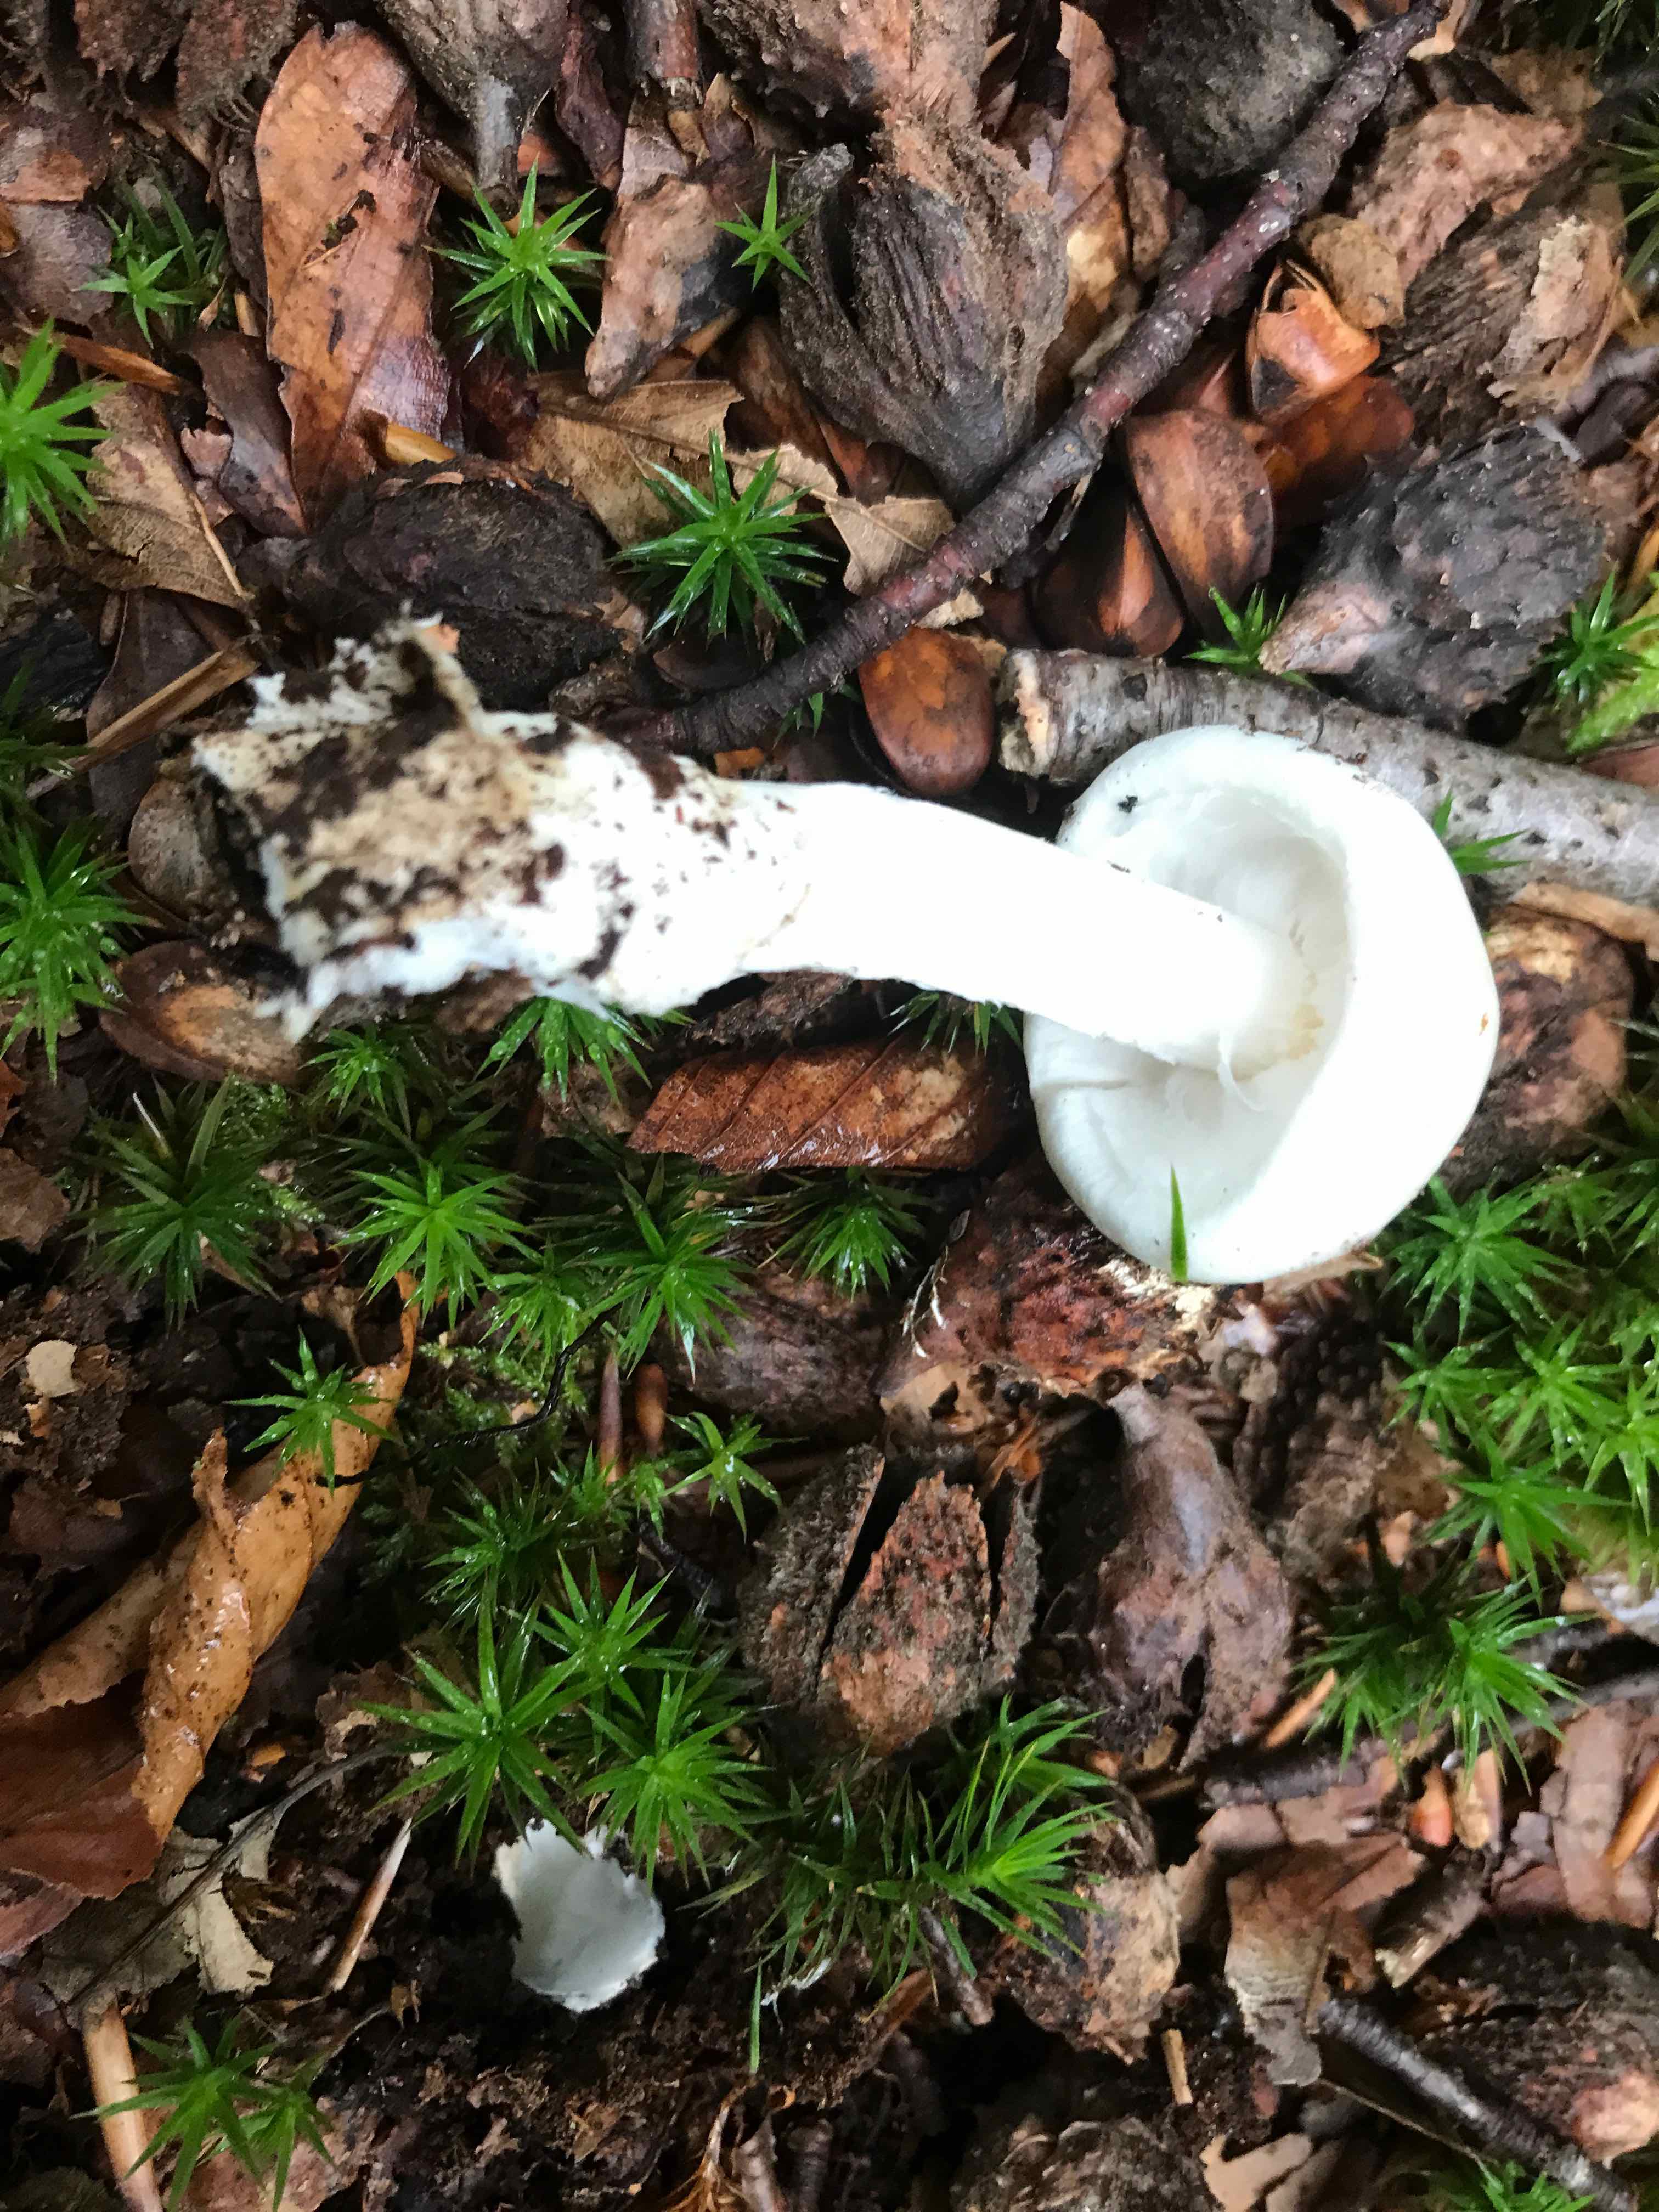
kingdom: Fungi
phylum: Basidiomycota
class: Agaricomycetes
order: Agaricales
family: Amanitaceae
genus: Amanita
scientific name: Amanita virosa
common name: snehvid fluesvamp
